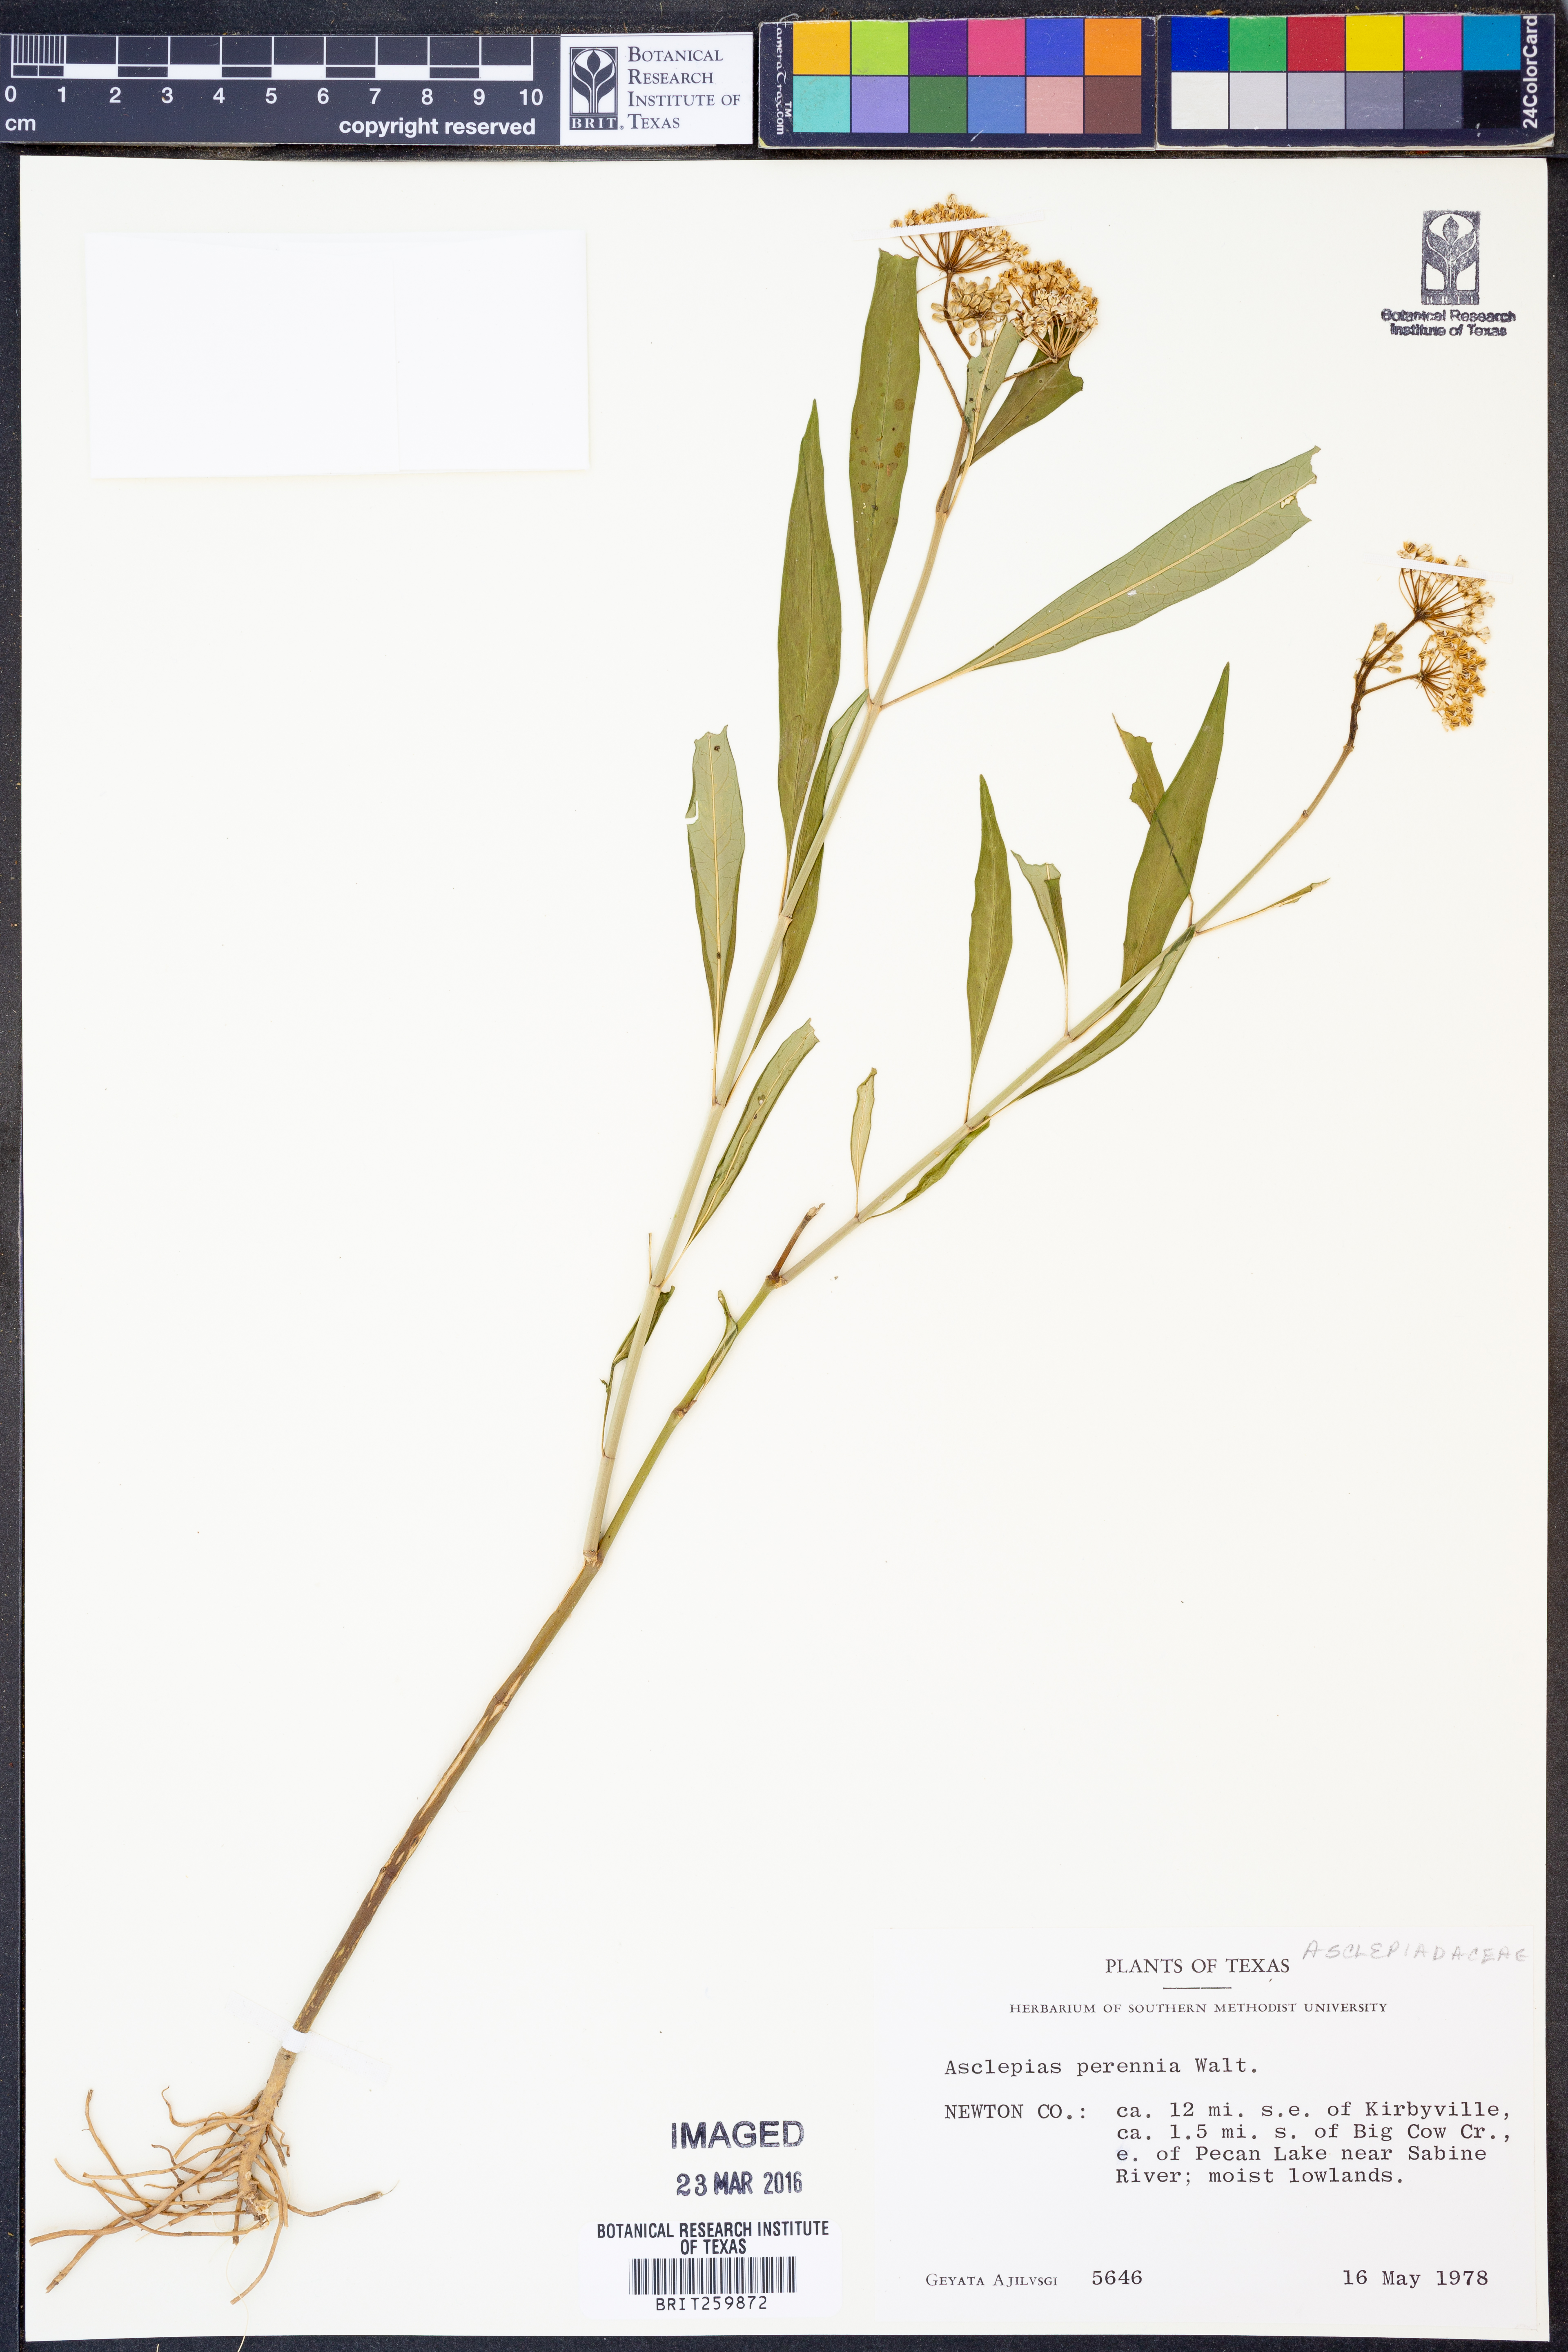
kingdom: Plantae
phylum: Tracheophyta
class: Magnoliopsida
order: Gentianales
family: Apocynaceae
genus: Asclepias
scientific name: Asclepias perennis
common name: Smooth-seed milkweed
